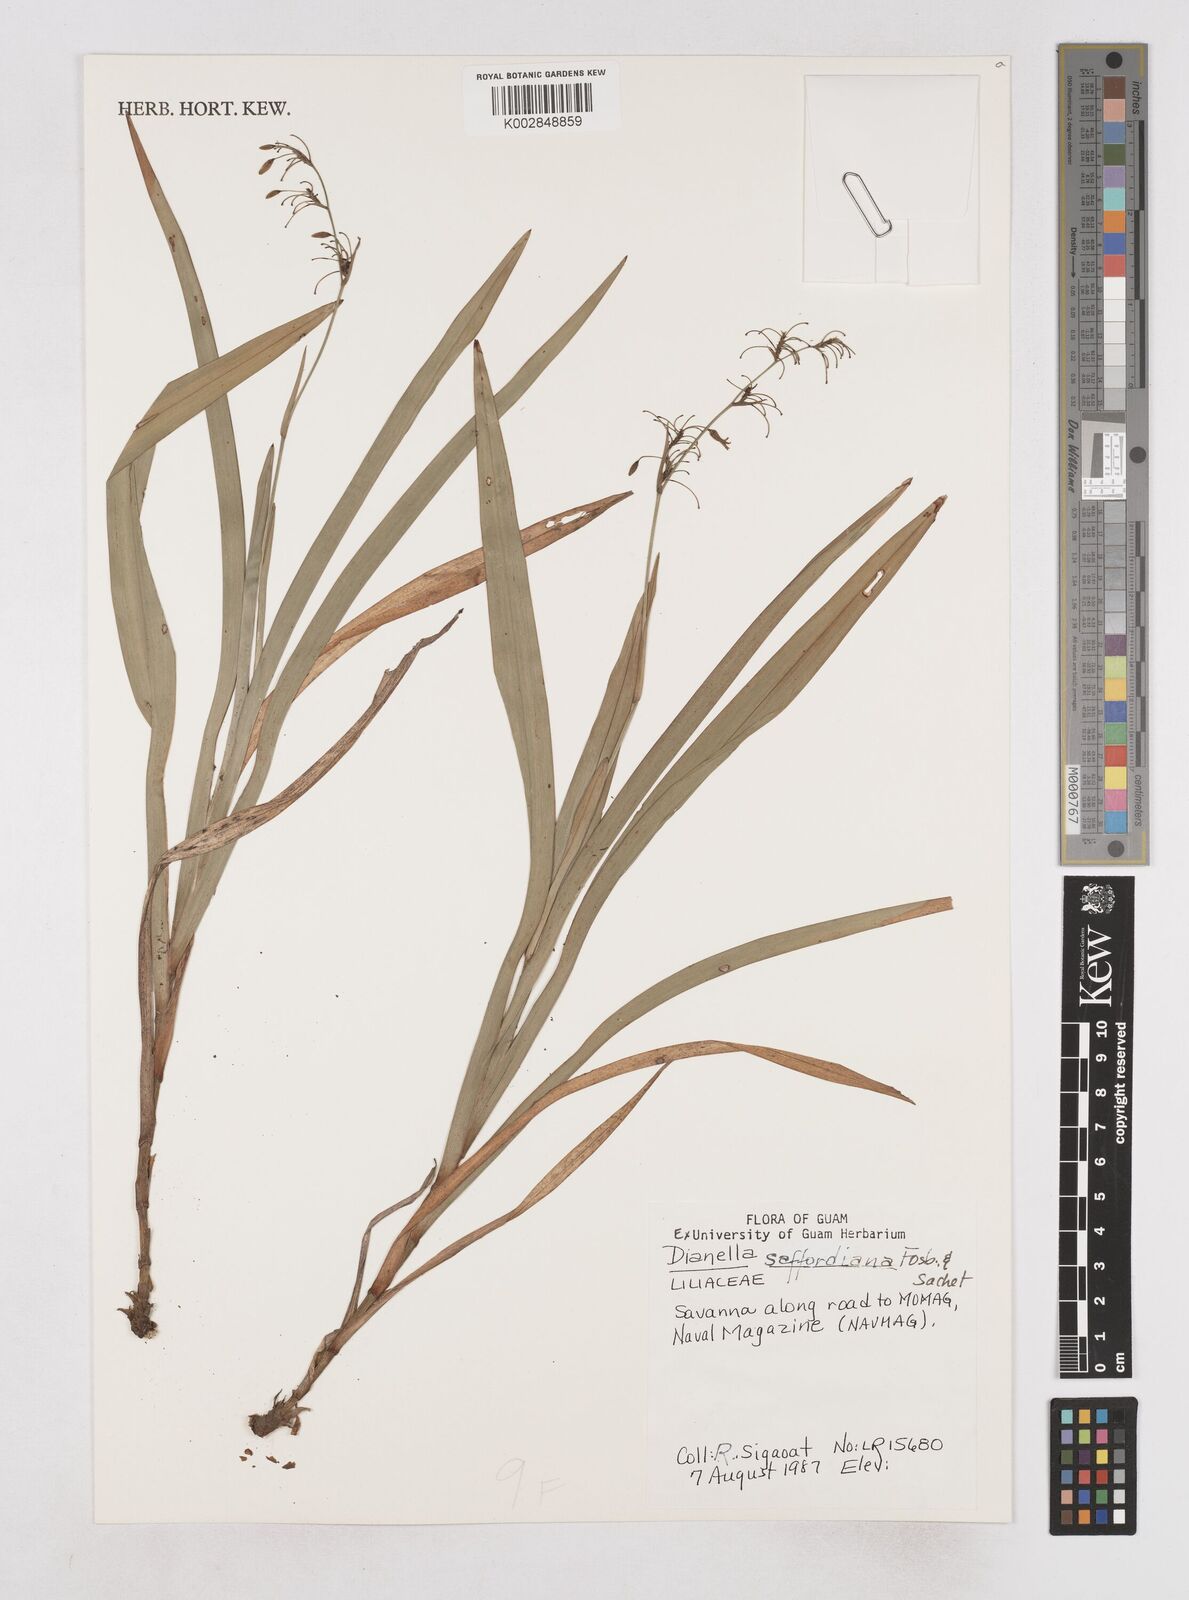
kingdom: Plantae
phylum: Tracheophyta
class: Liliopsida
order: Asparagales
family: Asphodelaceae
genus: Dianella
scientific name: Dianella saffordiana
